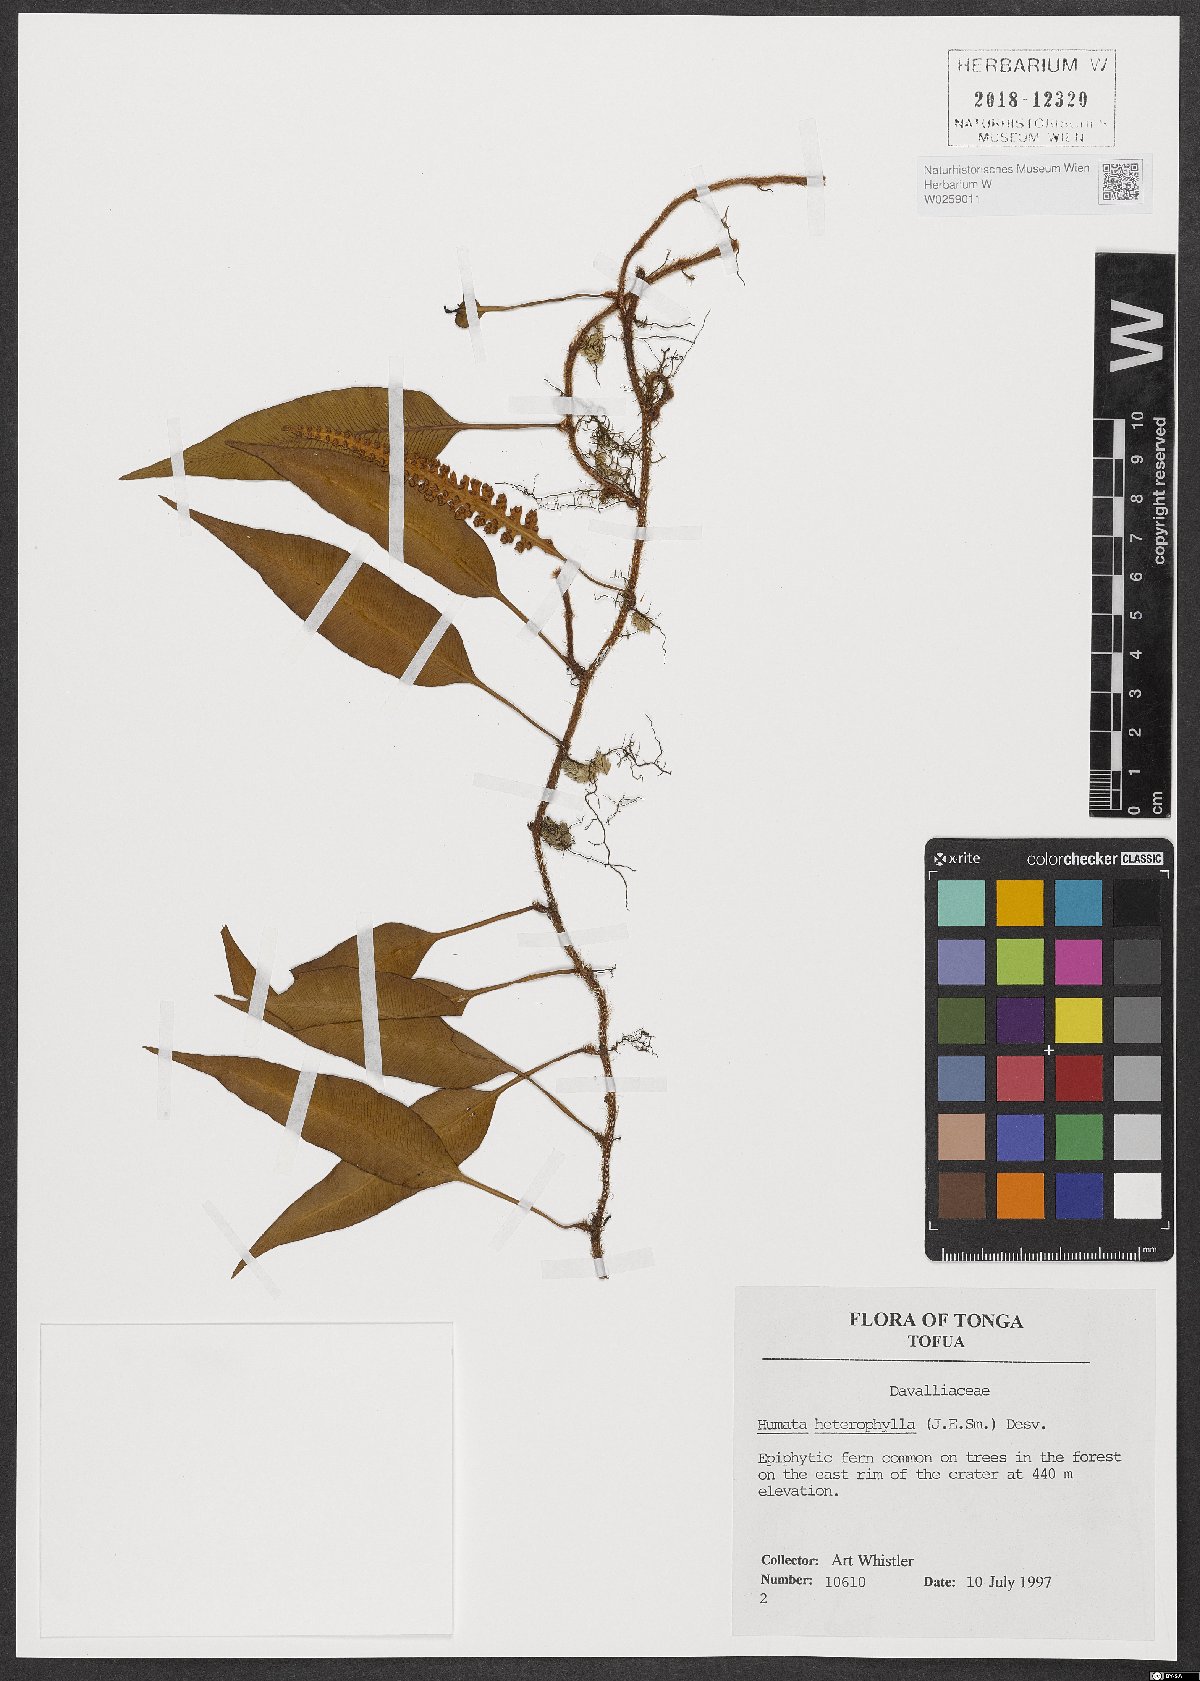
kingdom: Plantae
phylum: Tracheophyta
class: Polypodiopsida
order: Polypodiales
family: Davalliaceae
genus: Davallia
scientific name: Davallia heterophylla
